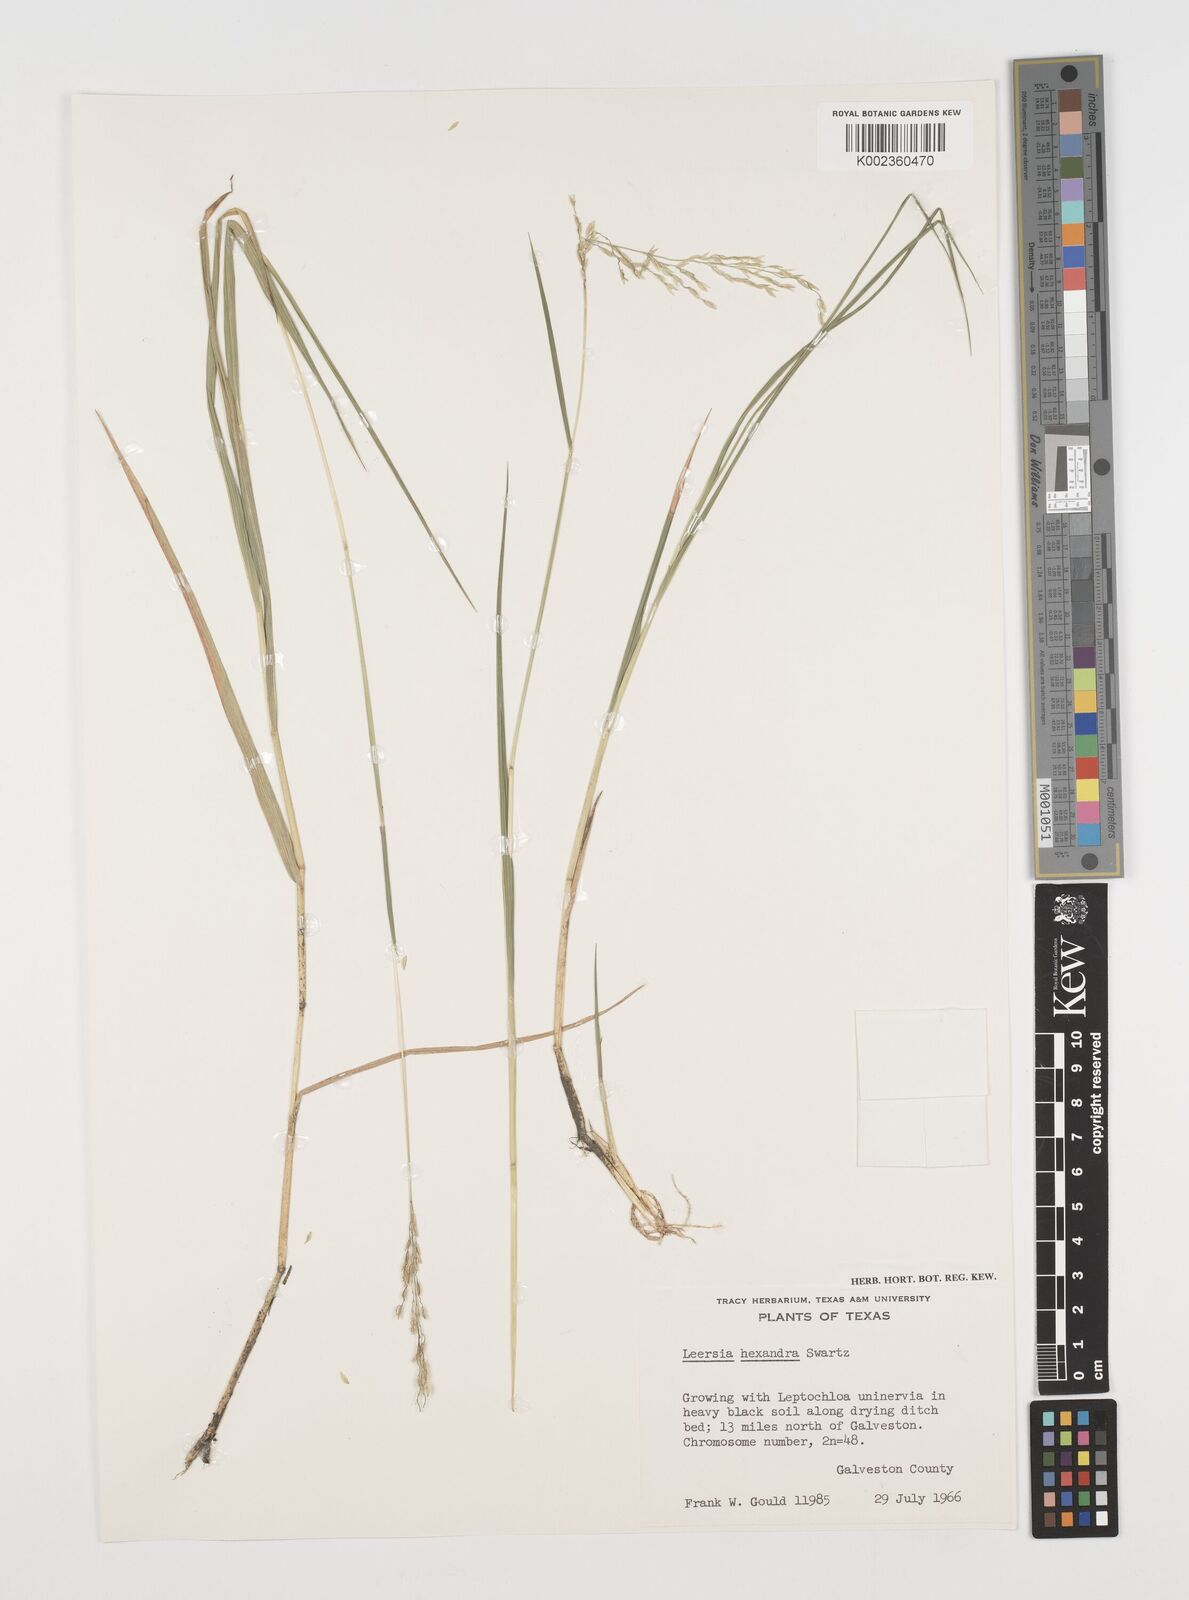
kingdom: Plantae
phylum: Tracheophyta
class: Liliopsida
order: Poales
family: Poaceae
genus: Leersia
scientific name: Leersia hexandra
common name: Southern cut grass
